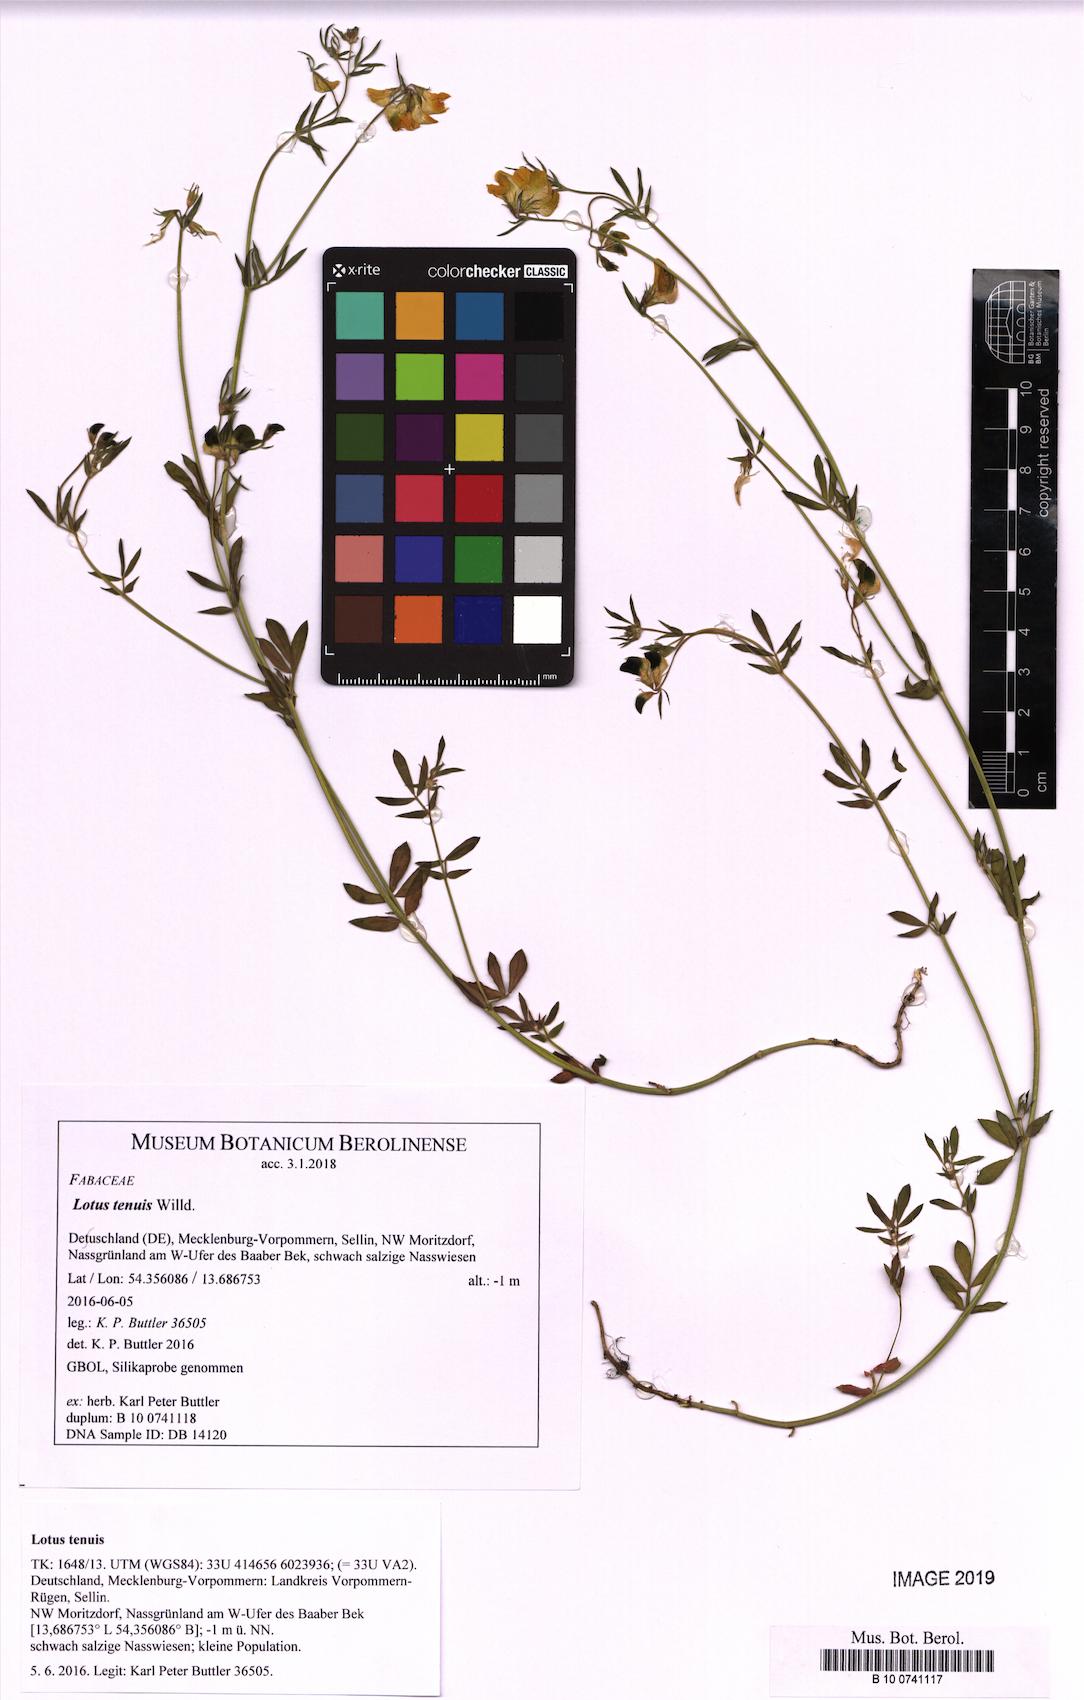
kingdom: Plantae
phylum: Tracheophyta
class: Magnoliopsida
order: Fabales
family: Fabaceae
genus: Lotus
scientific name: Lotus tenuis
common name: Narrow-leaved bird's-foot-trefoil
